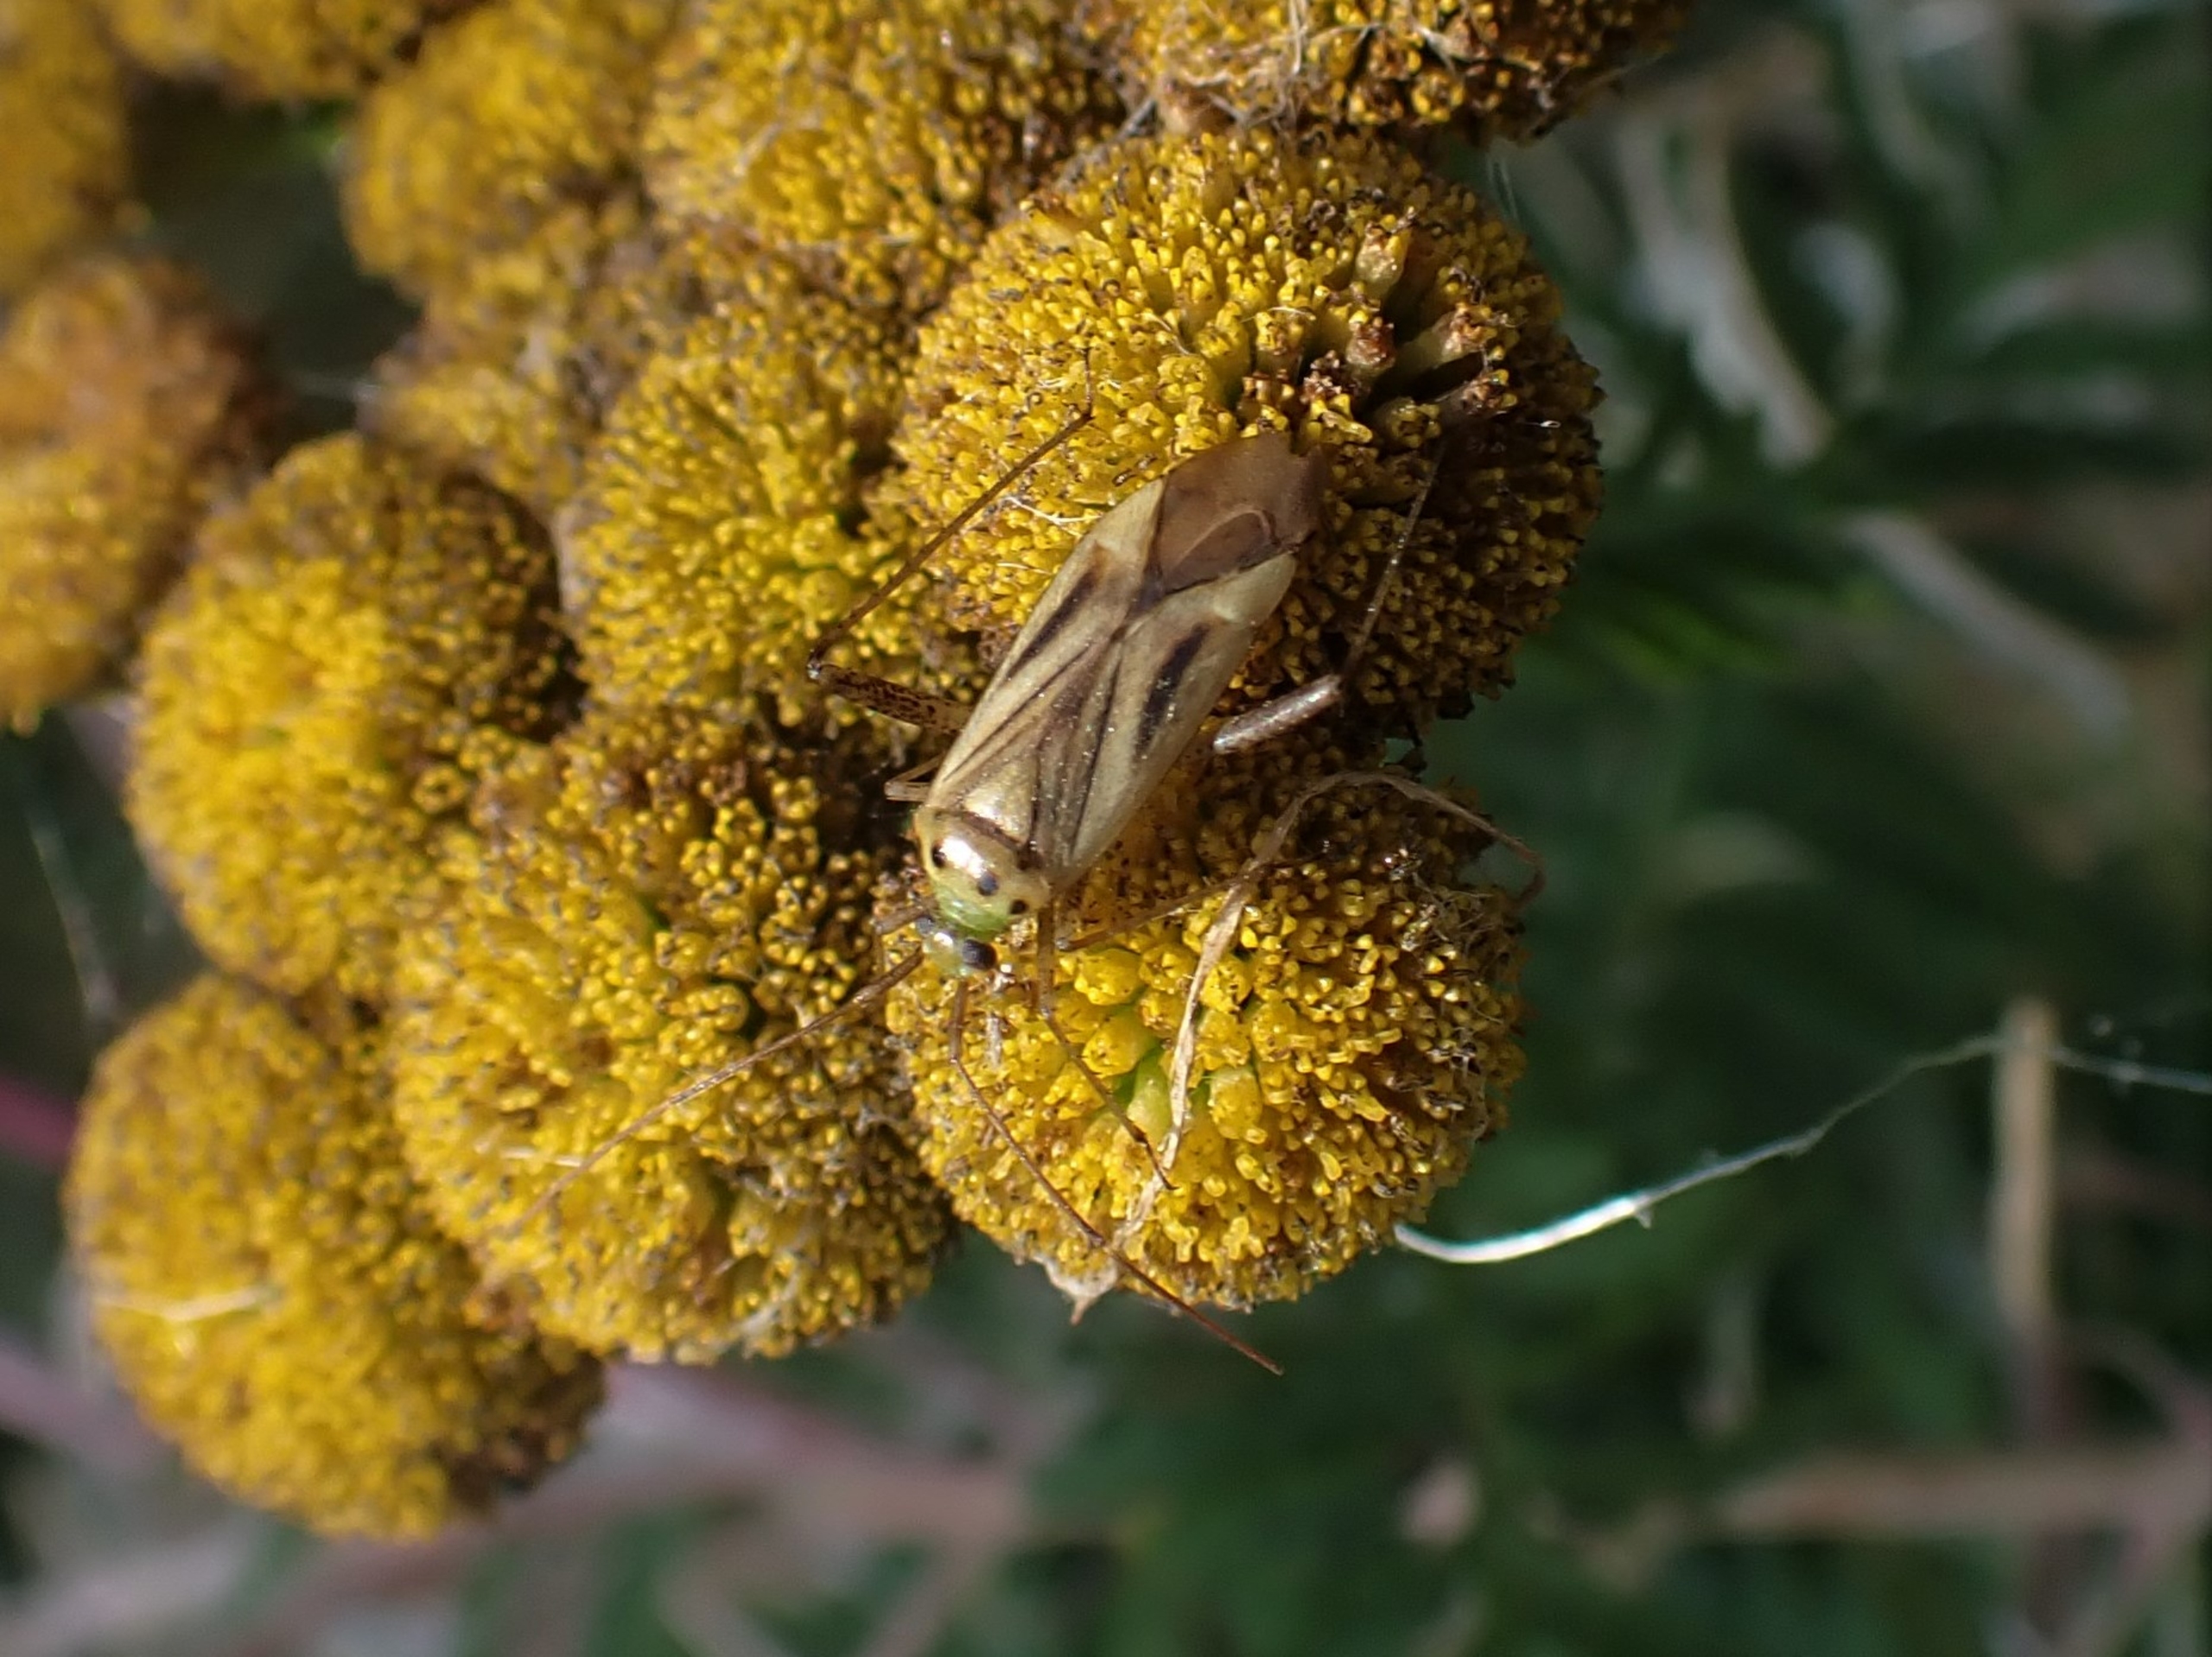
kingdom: Animalia
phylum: Arthropoda
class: Insecta
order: Hemiptera
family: Miridae
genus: Adelphocoris
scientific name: Adelphocoris quadripunctatus
